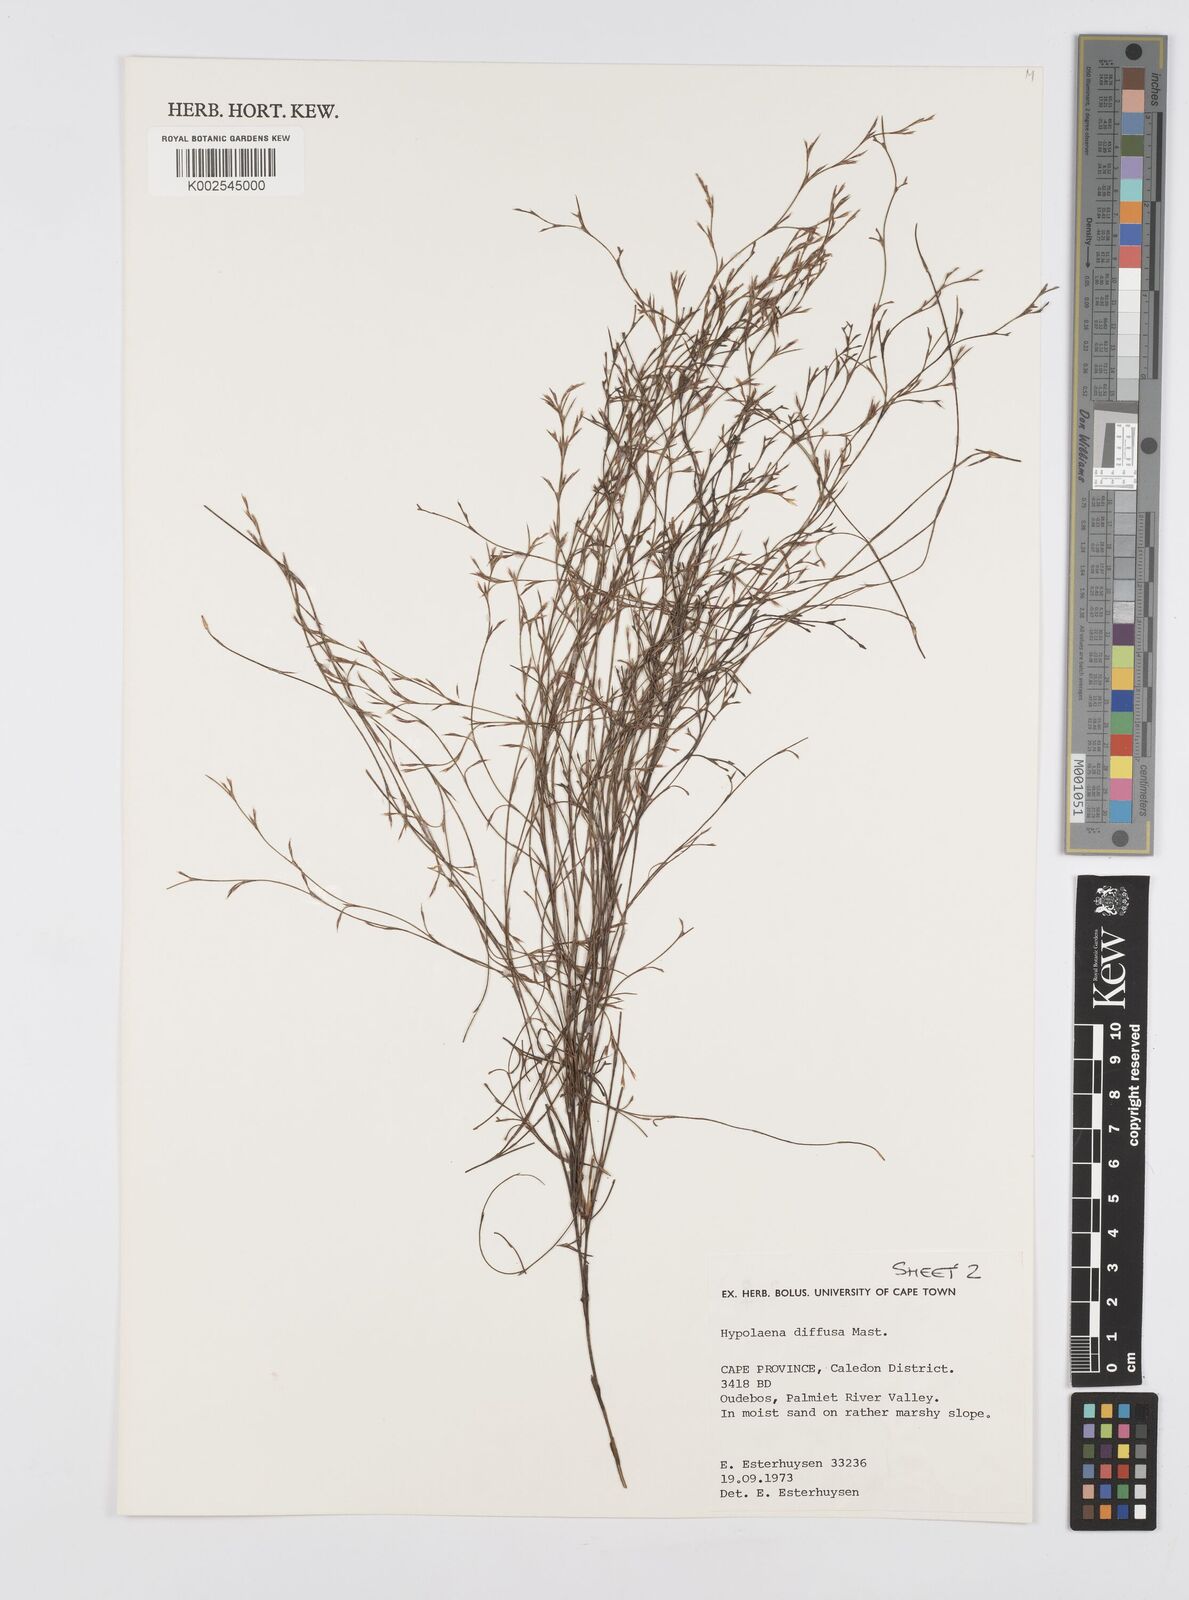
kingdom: Plantae
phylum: Tracheophyta
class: Liliopsida
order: Poales
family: Restionaceae
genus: Anthochortus
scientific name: Anthochortus crinalis
